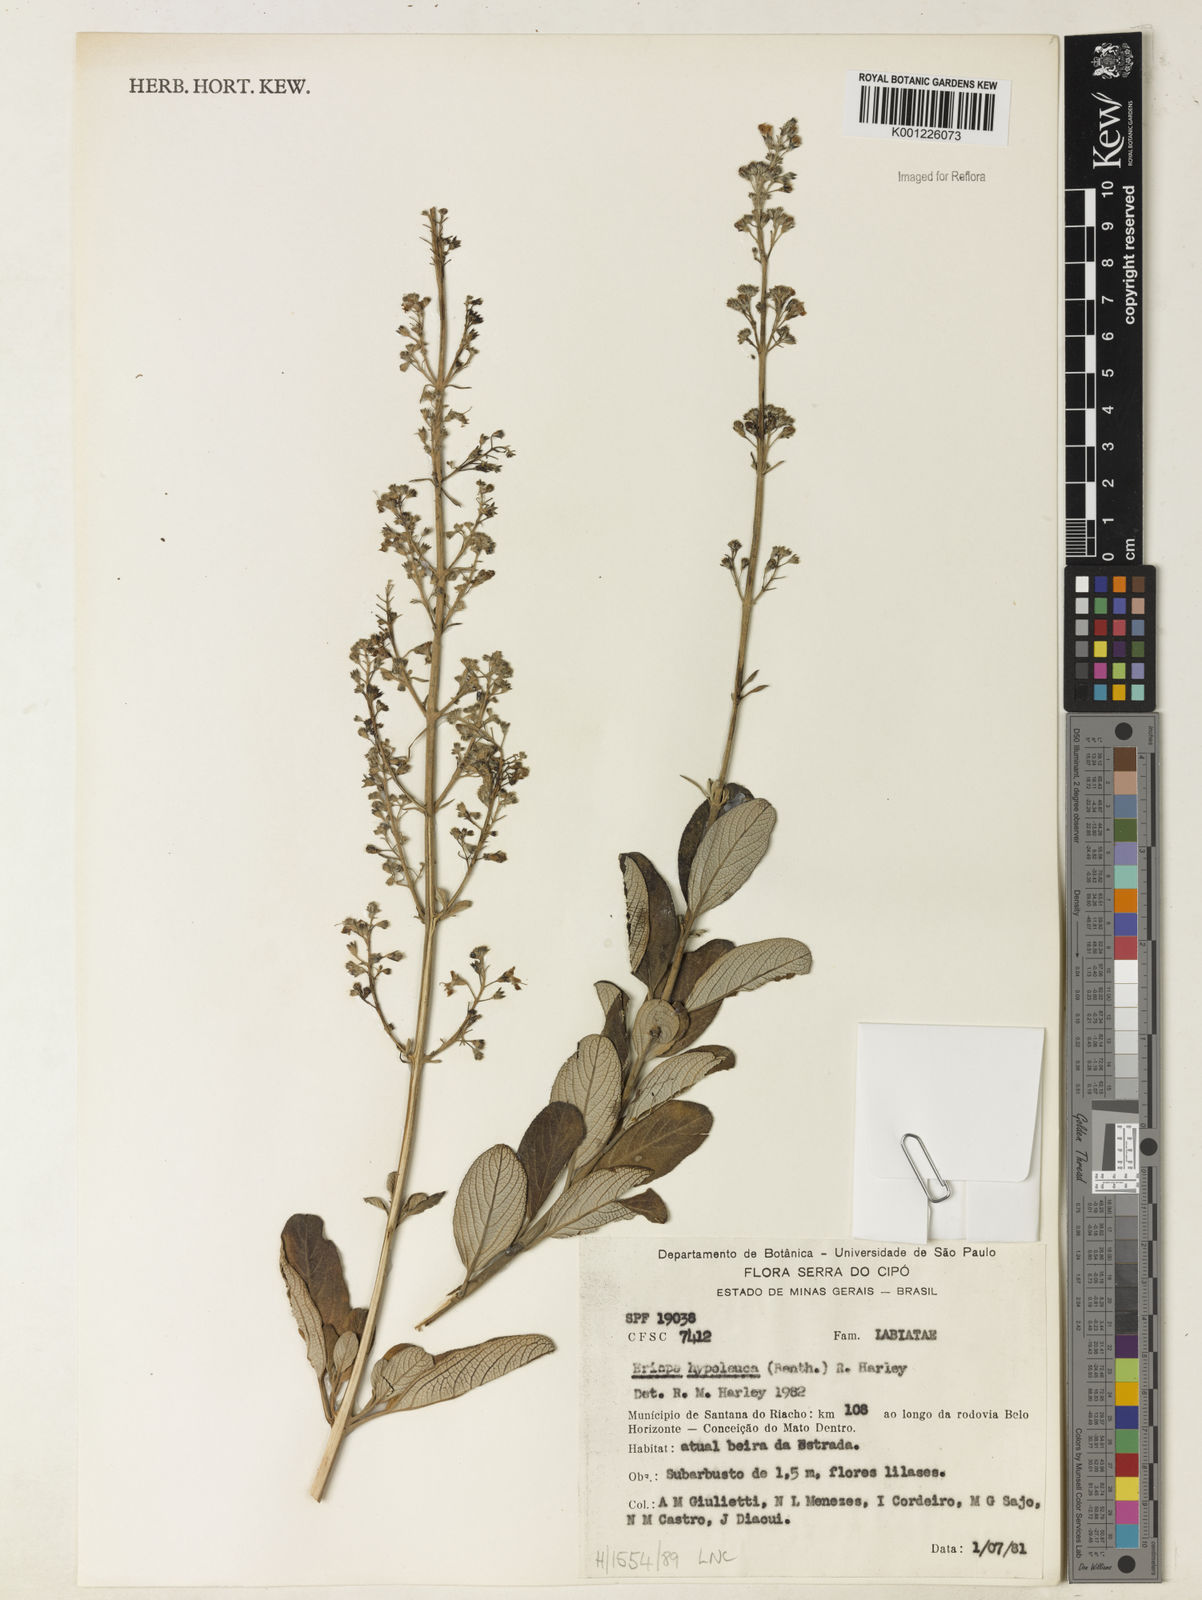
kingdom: Plantae
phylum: Tracheophyta
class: Magnoliopsida
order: Lamiales
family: Lamiaceae
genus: Eriope
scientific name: Eriope hypoleuca
